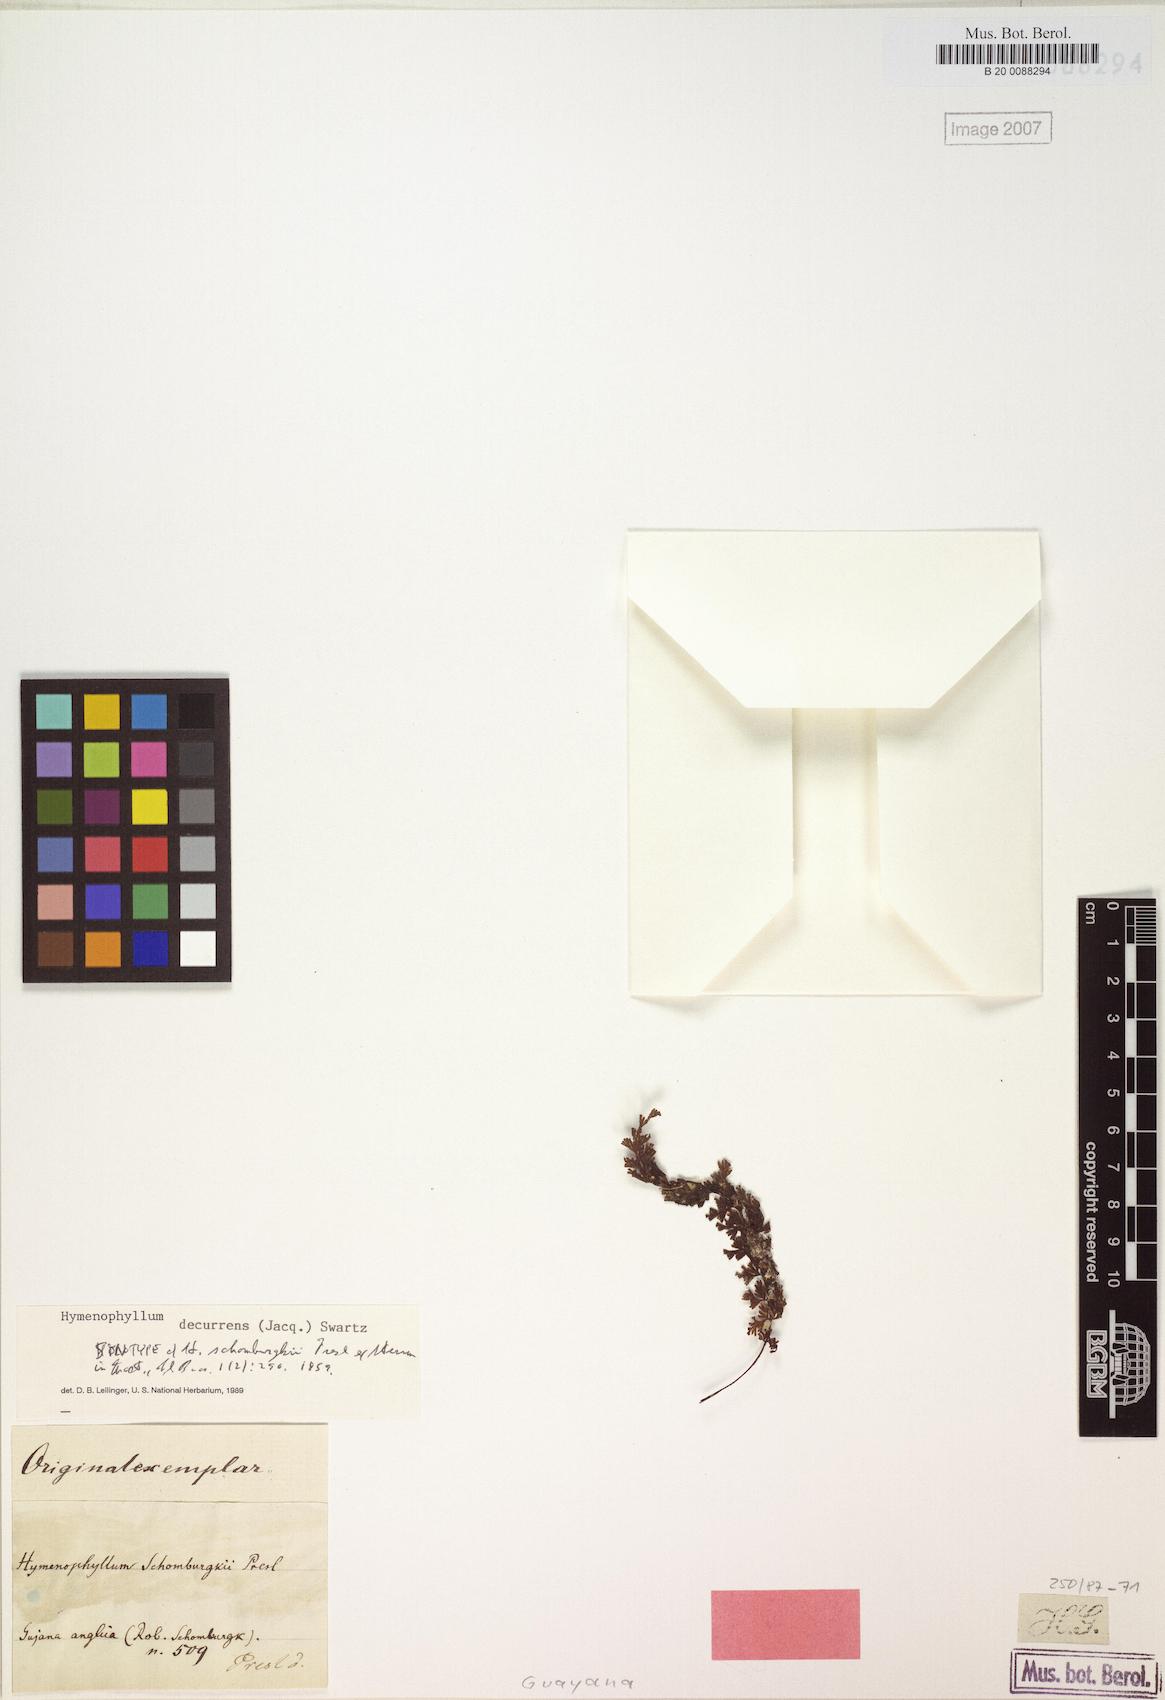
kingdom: Plantae
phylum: Tracheophyta
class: Polypodiopsida
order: Hymenophyllales
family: Hymenophyllaceae
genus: Hymenophyllum
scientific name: Hymenophyllum protrusum
